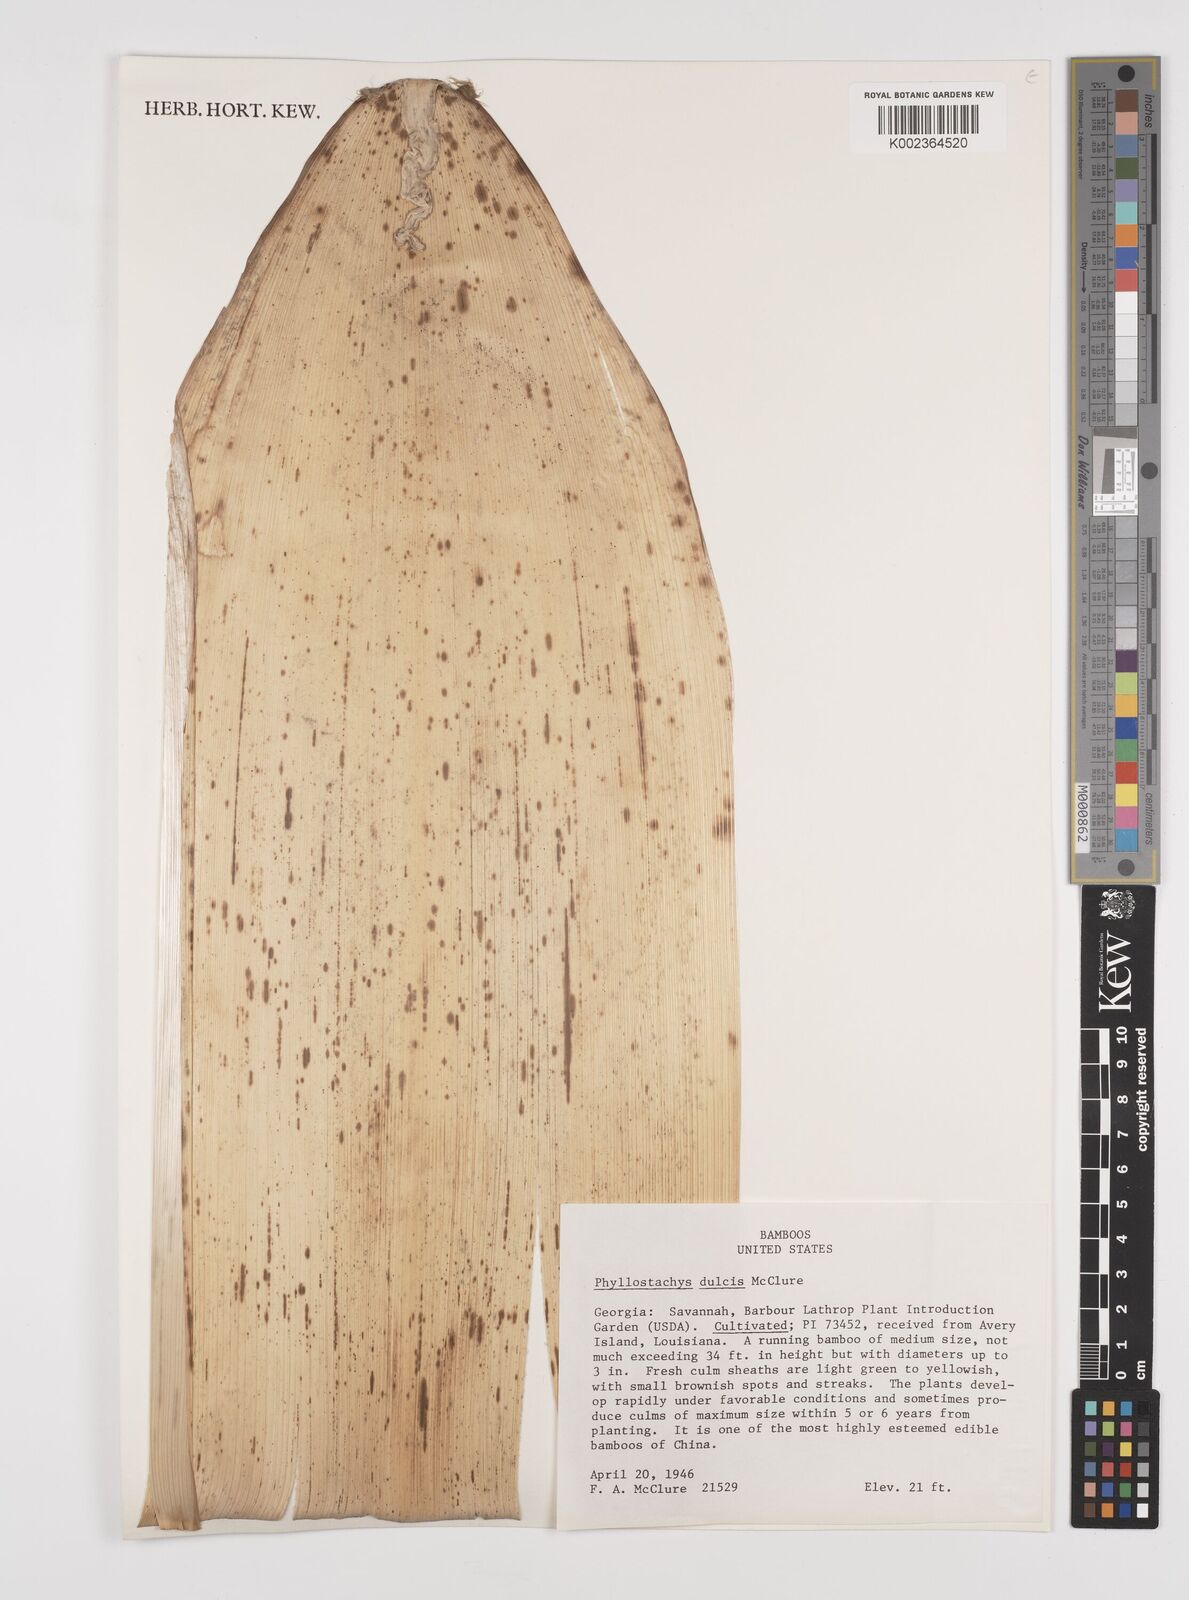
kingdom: Plantae
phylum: Tracheophyta
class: Liliopsida
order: Poales
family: Poaceae
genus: Phyllostachys
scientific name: Phyllostachys dulcis
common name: Sweetshoot bamboo
